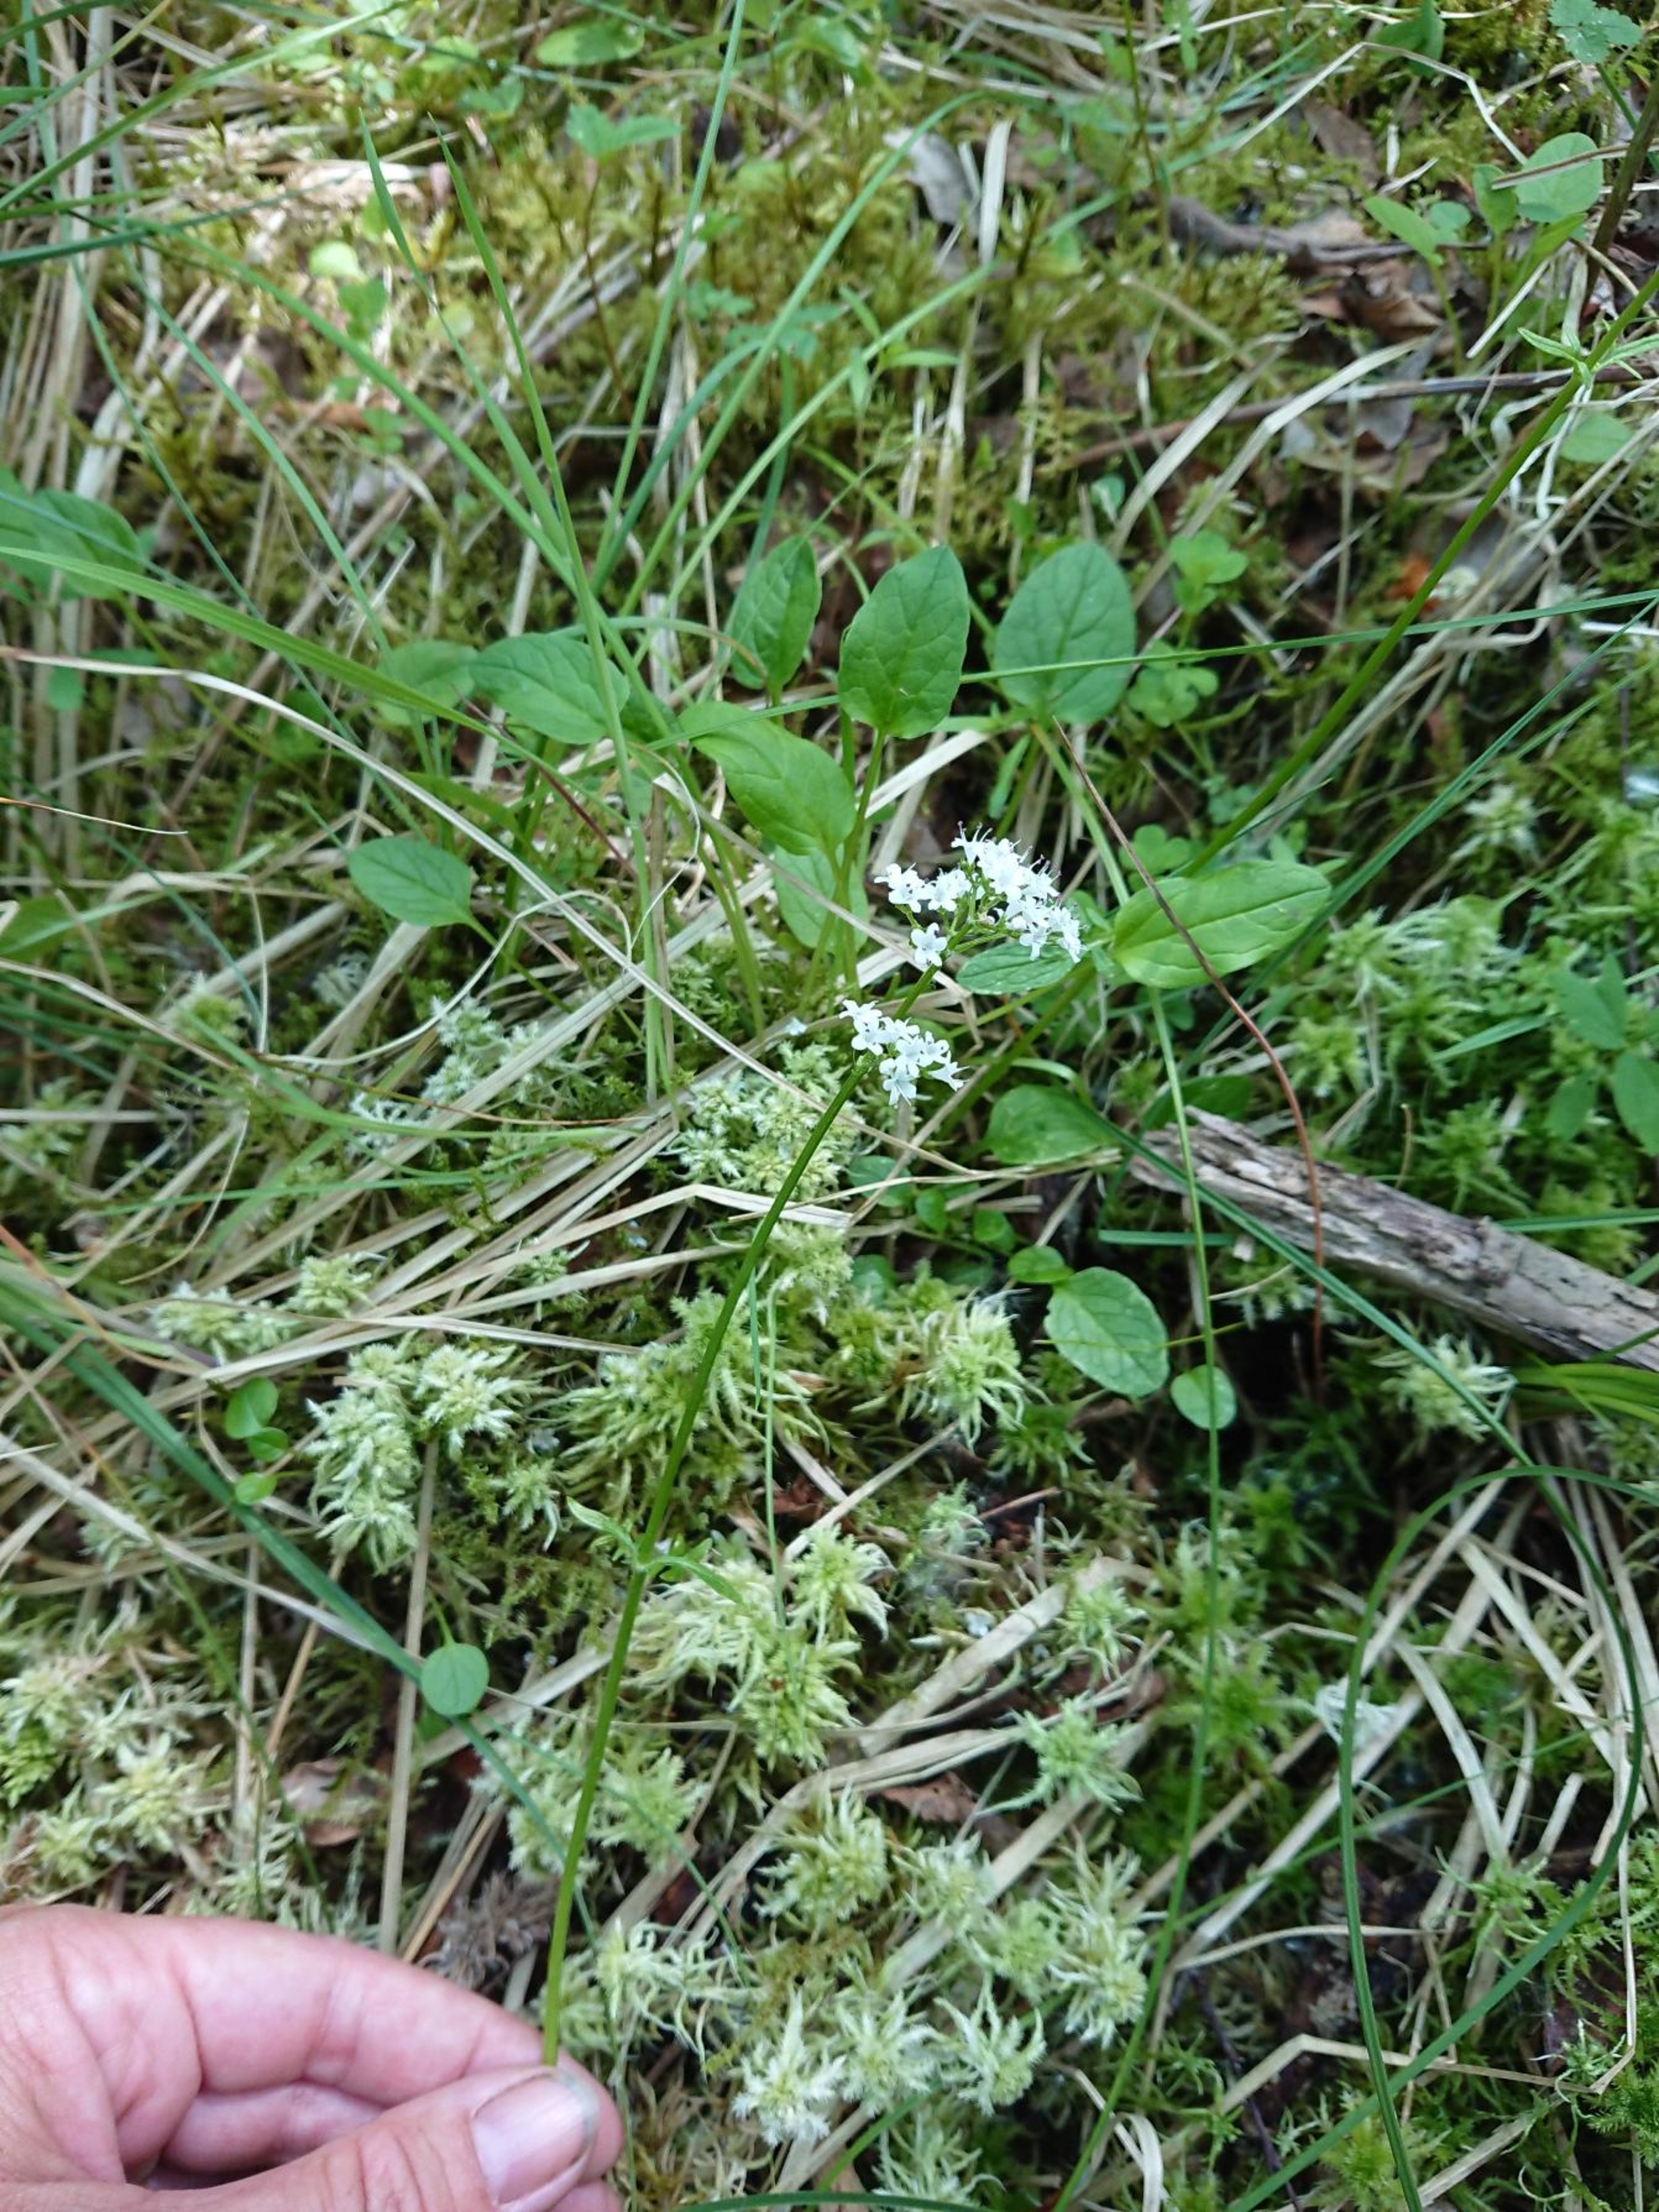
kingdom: Plantae
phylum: Tracheophyta
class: Magnoliopsida
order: Dipsacales
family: Caprifoliaceae
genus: Valeriana
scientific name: Valeriana dioica
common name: Tvebo baldrian
